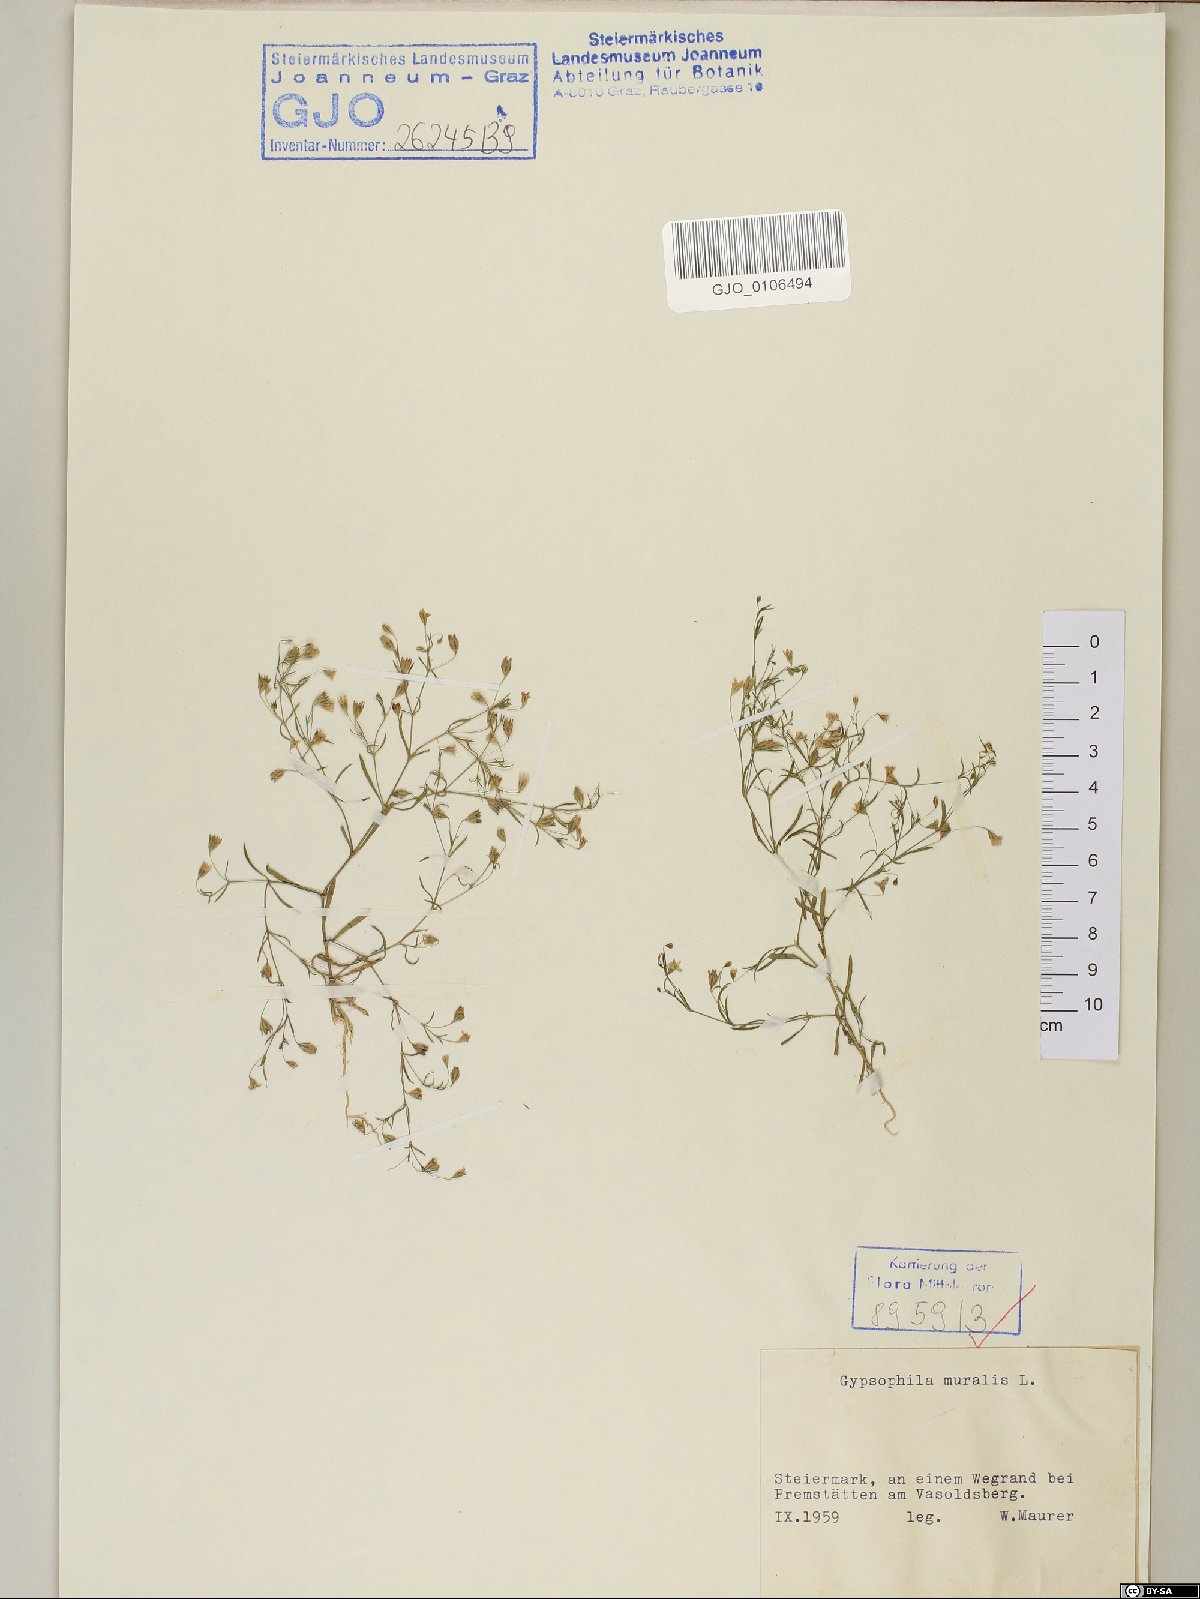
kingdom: Plantae
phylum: Tracheophyta
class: Magnoliopsida
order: Caryophyllales
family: Caryophyllaceae
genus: Psammophiliella
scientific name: Psammophiliella muralis
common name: Cushion baby's-breath
